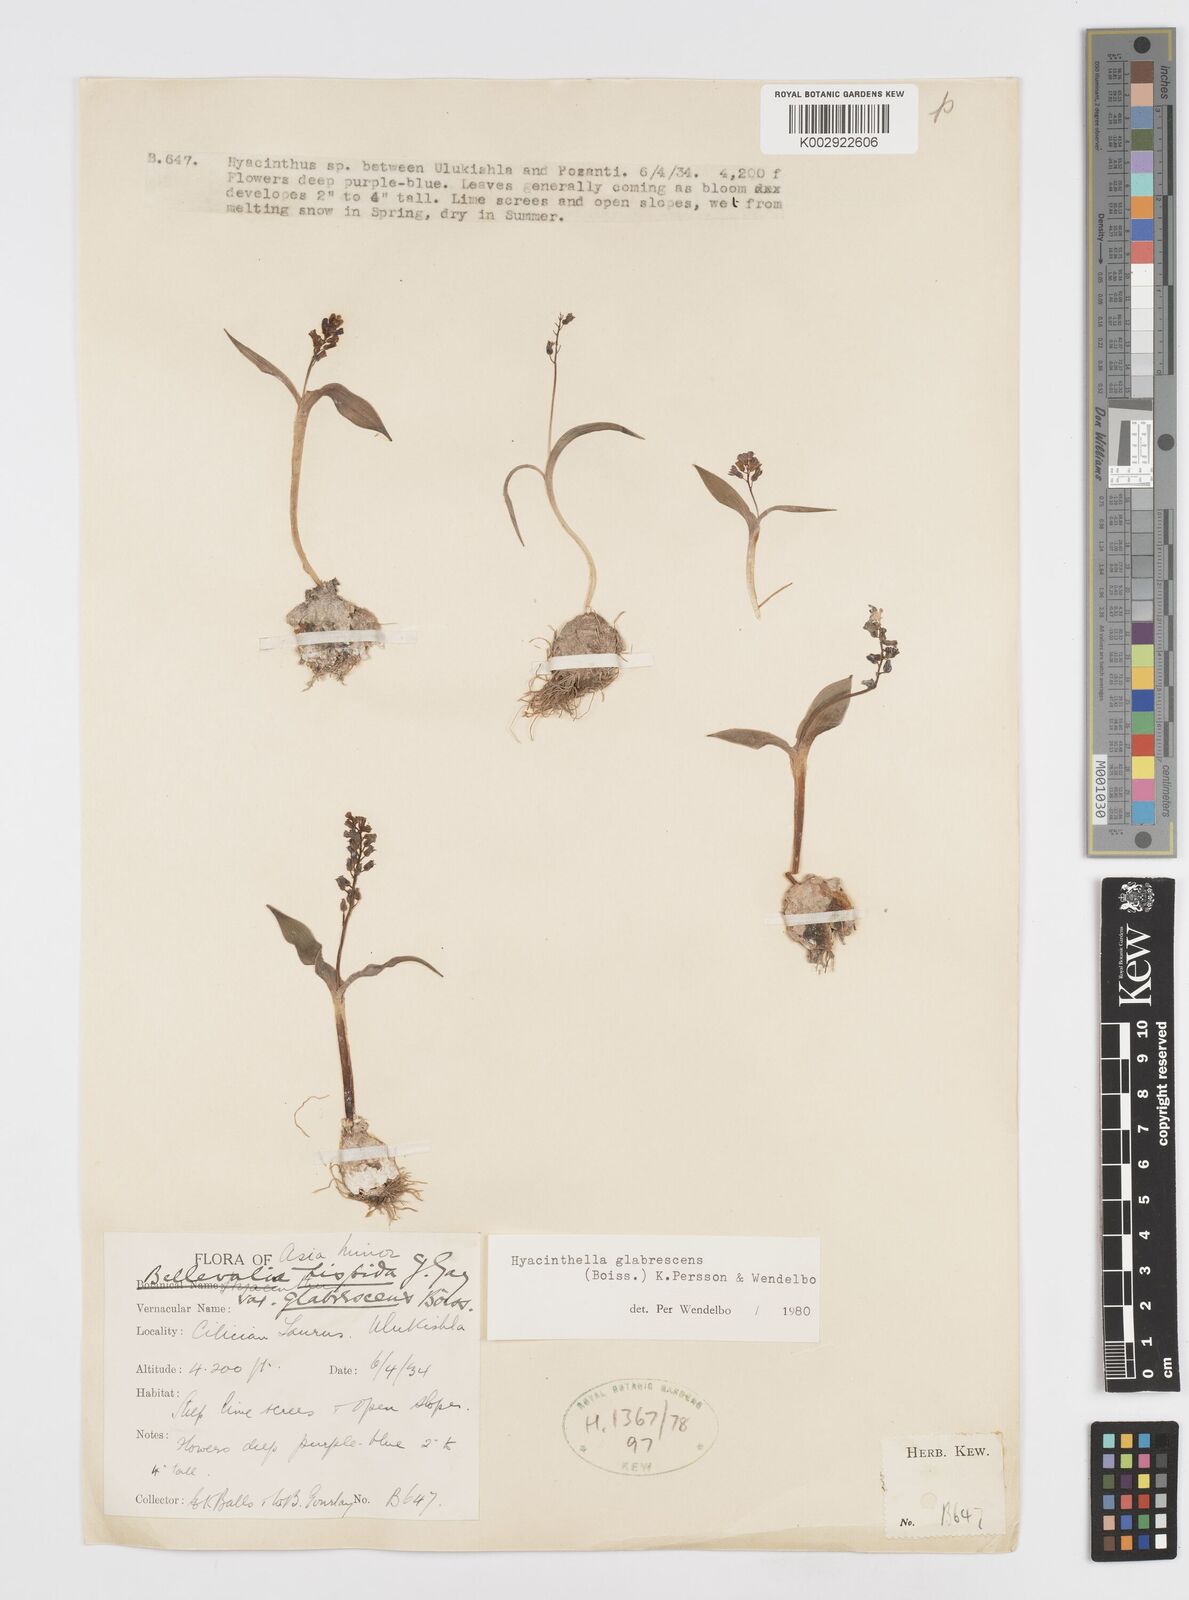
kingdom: Plantae
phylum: Tracheophyta
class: Liliopsida
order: Asparagales
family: Asparagaceae
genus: Hyacinthella
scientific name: Hyacinthella glabrescens
